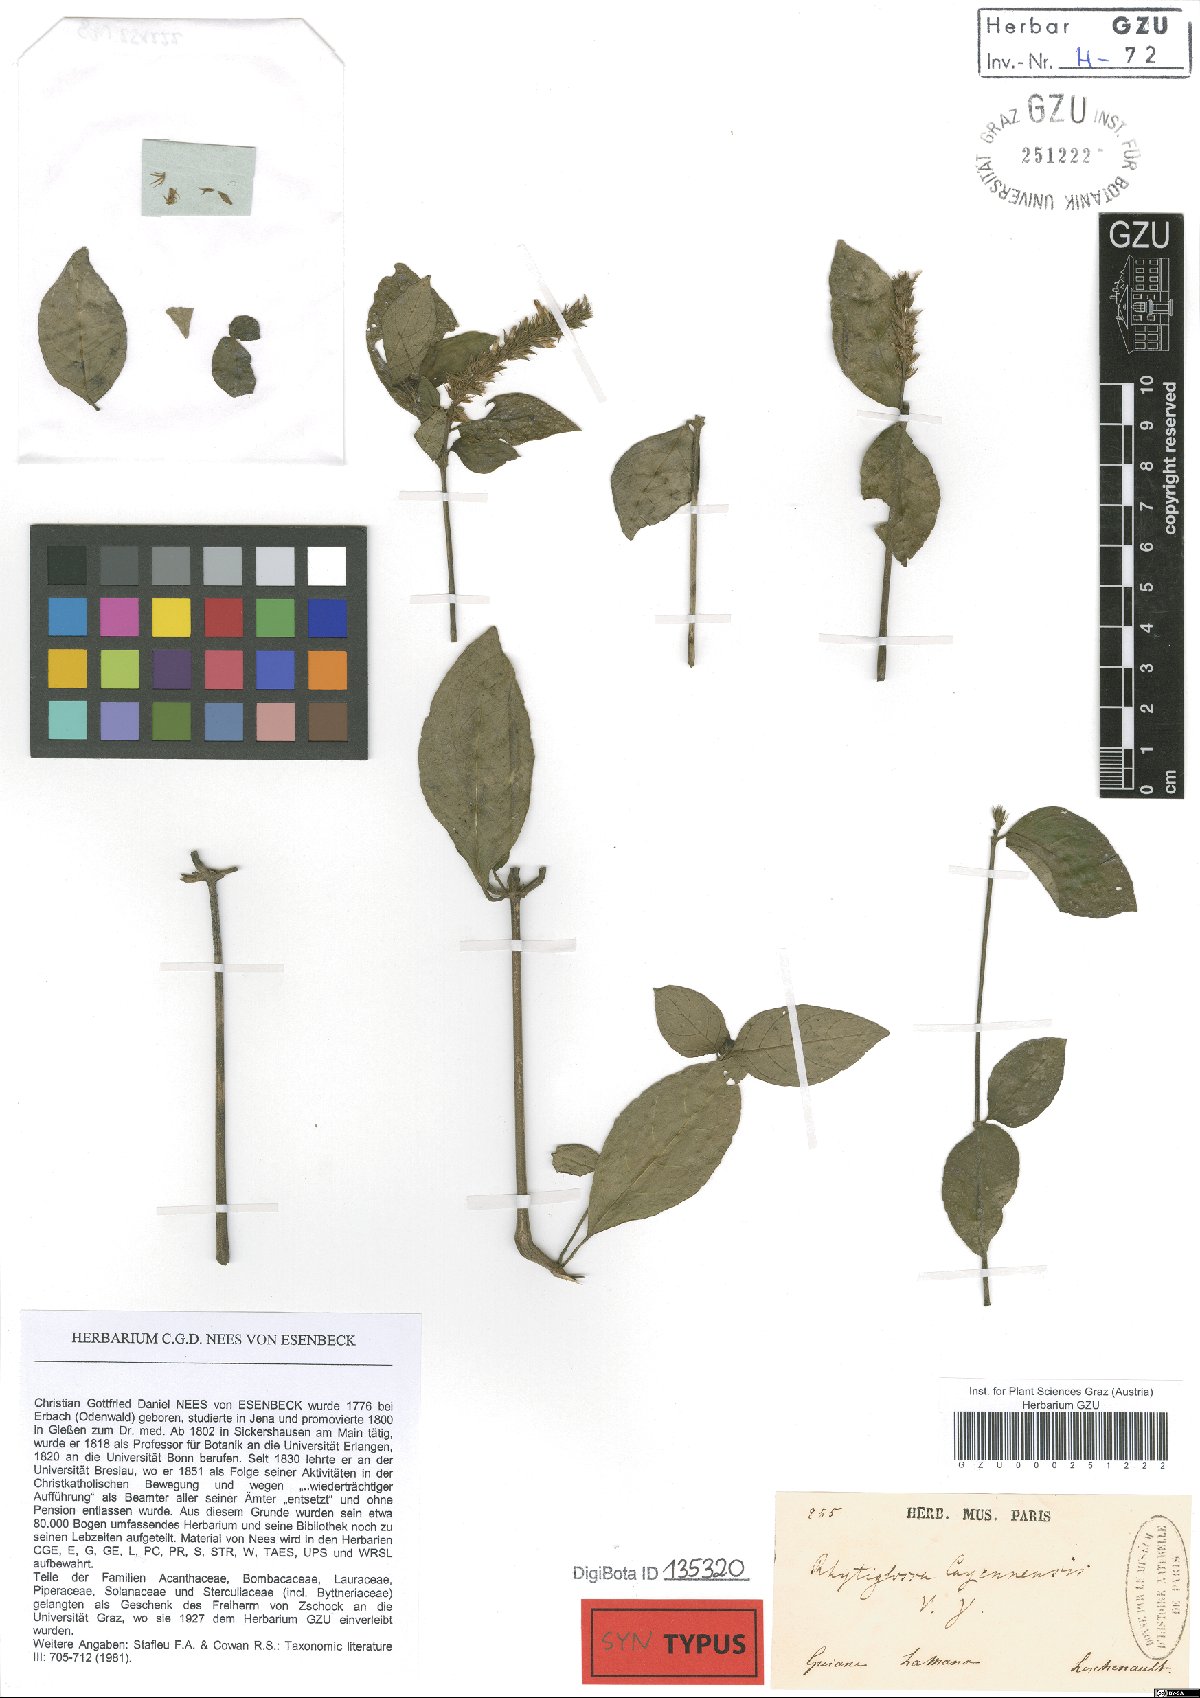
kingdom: Plantae
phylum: Tracheophyta
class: Magnoliopsida
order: Lamiales
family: Acanthaceae
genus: Dianthera
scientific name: Dianthera cayennensis
